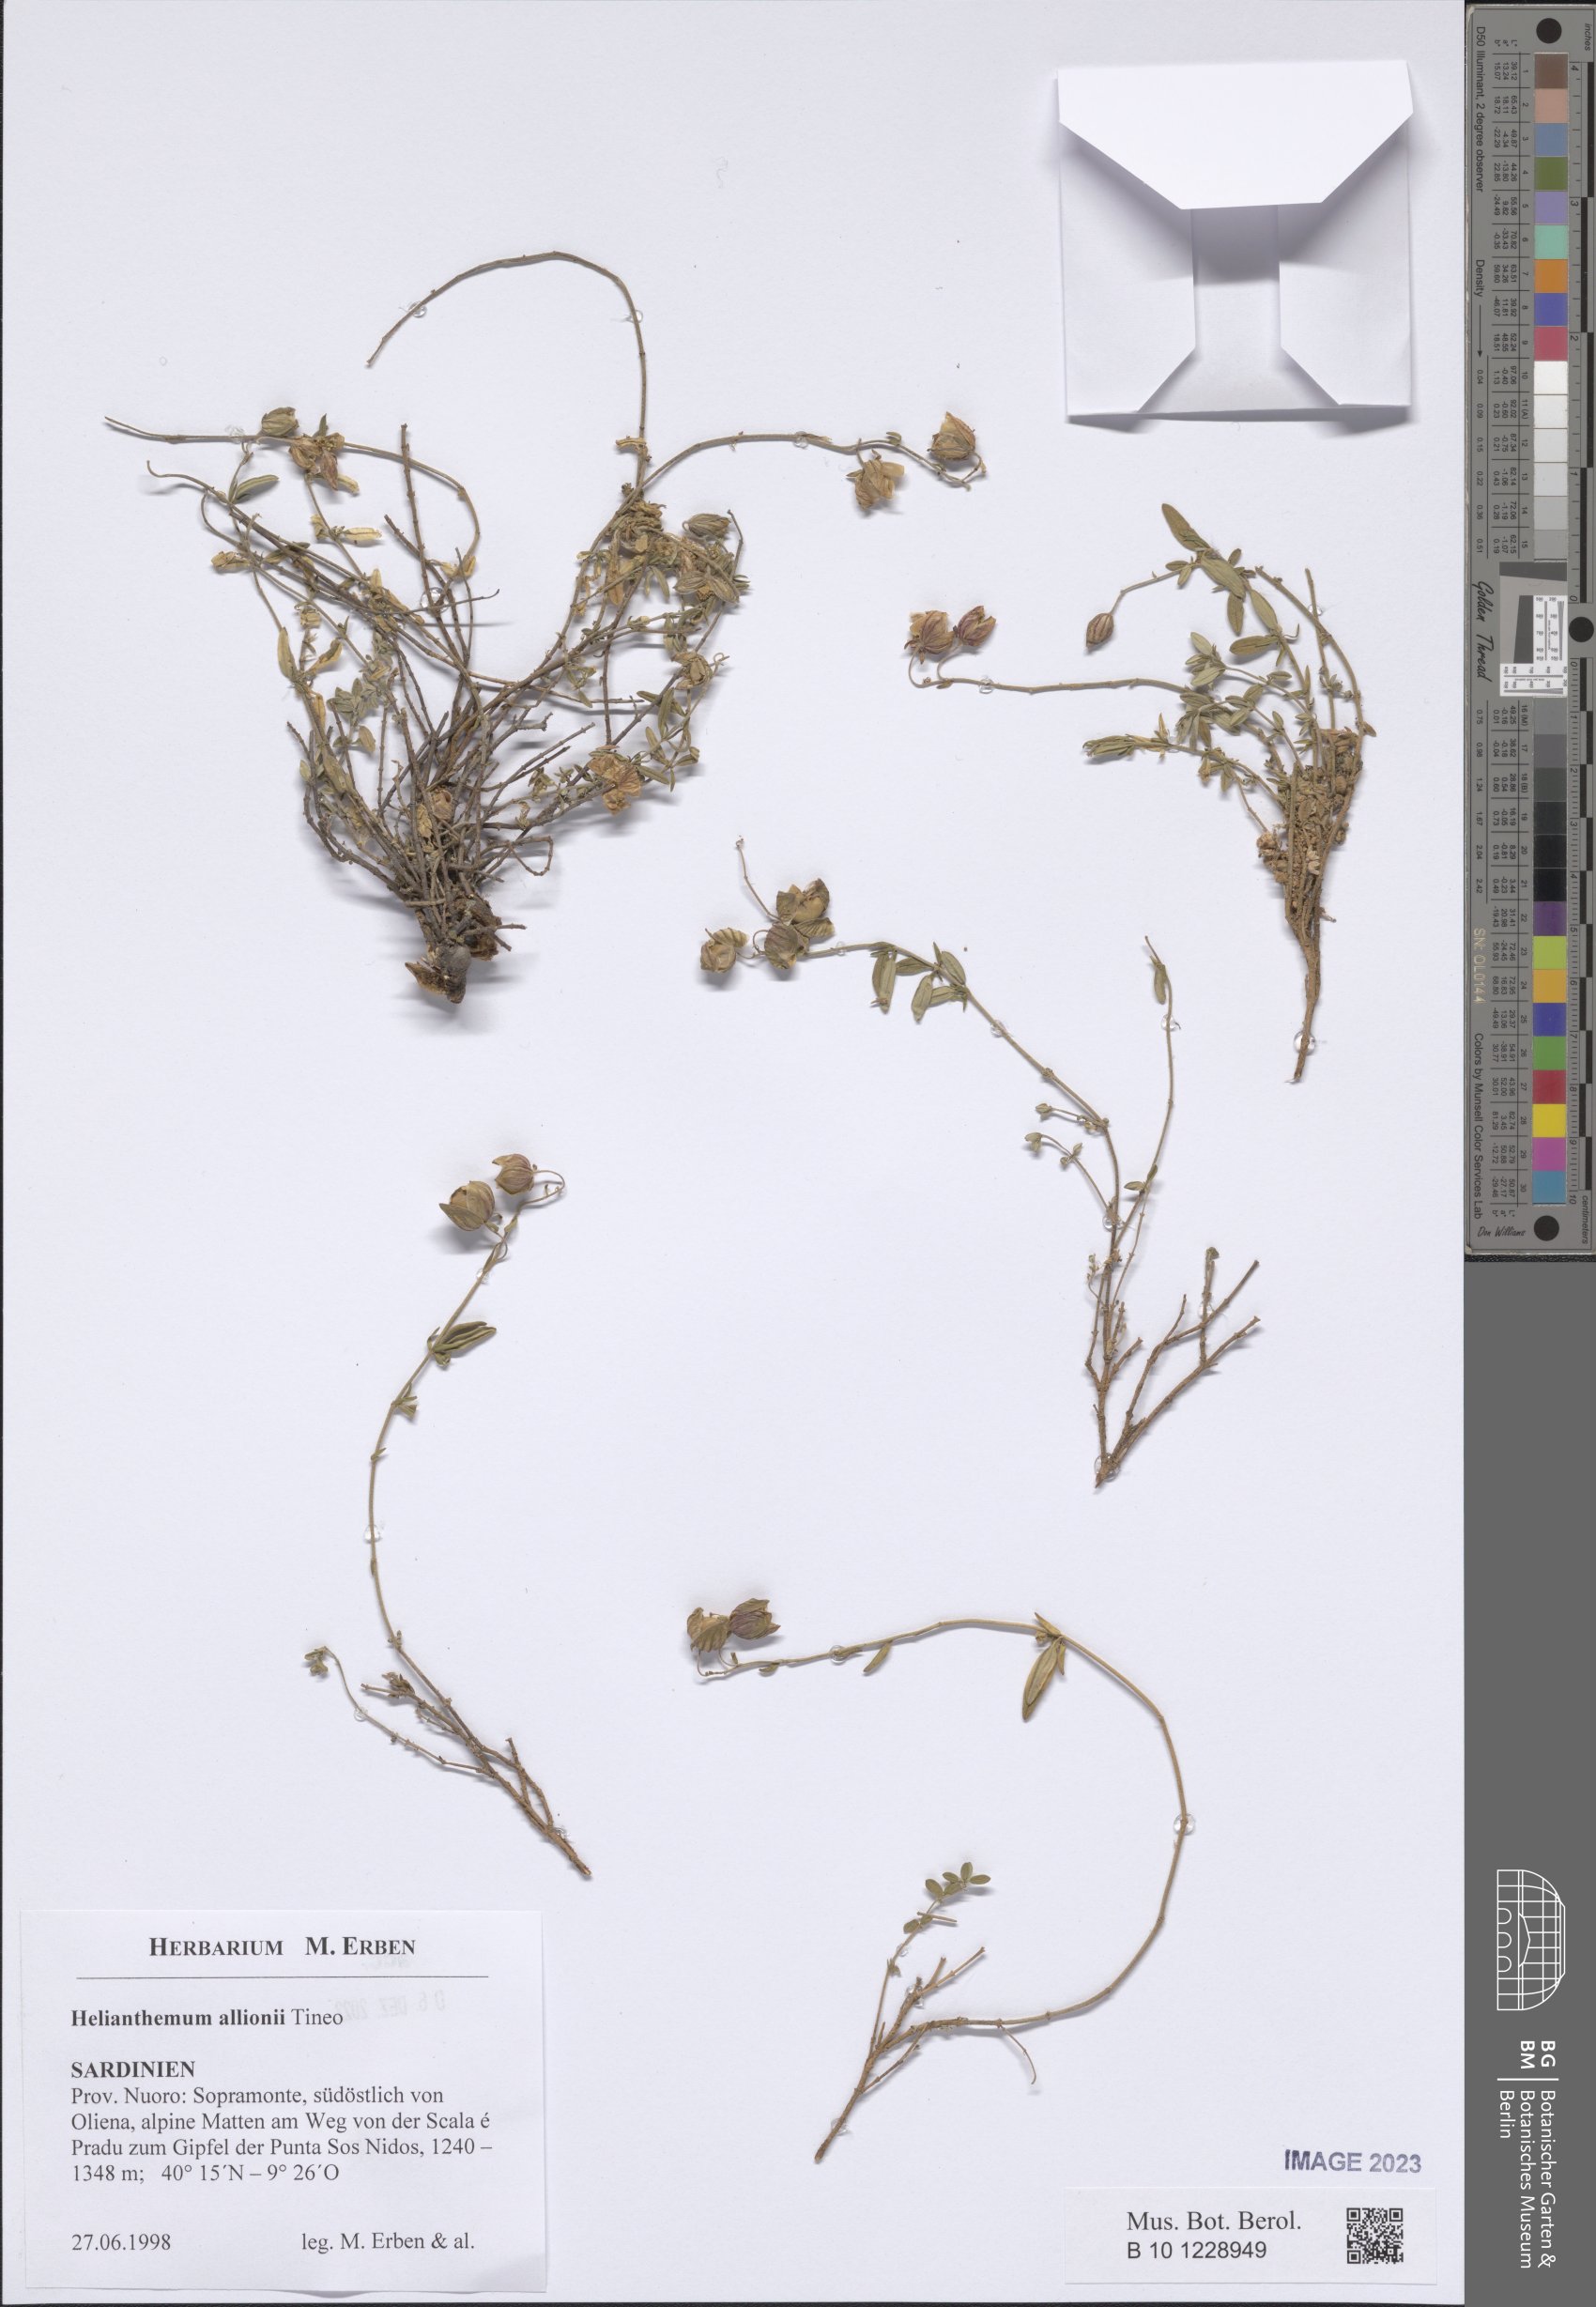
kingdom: Plantae
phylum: Tracheophyta
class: Magnoliopsida
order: Malvales
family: Cistaceae
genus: Helianthemum
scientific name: Helianthemum nebrodense
